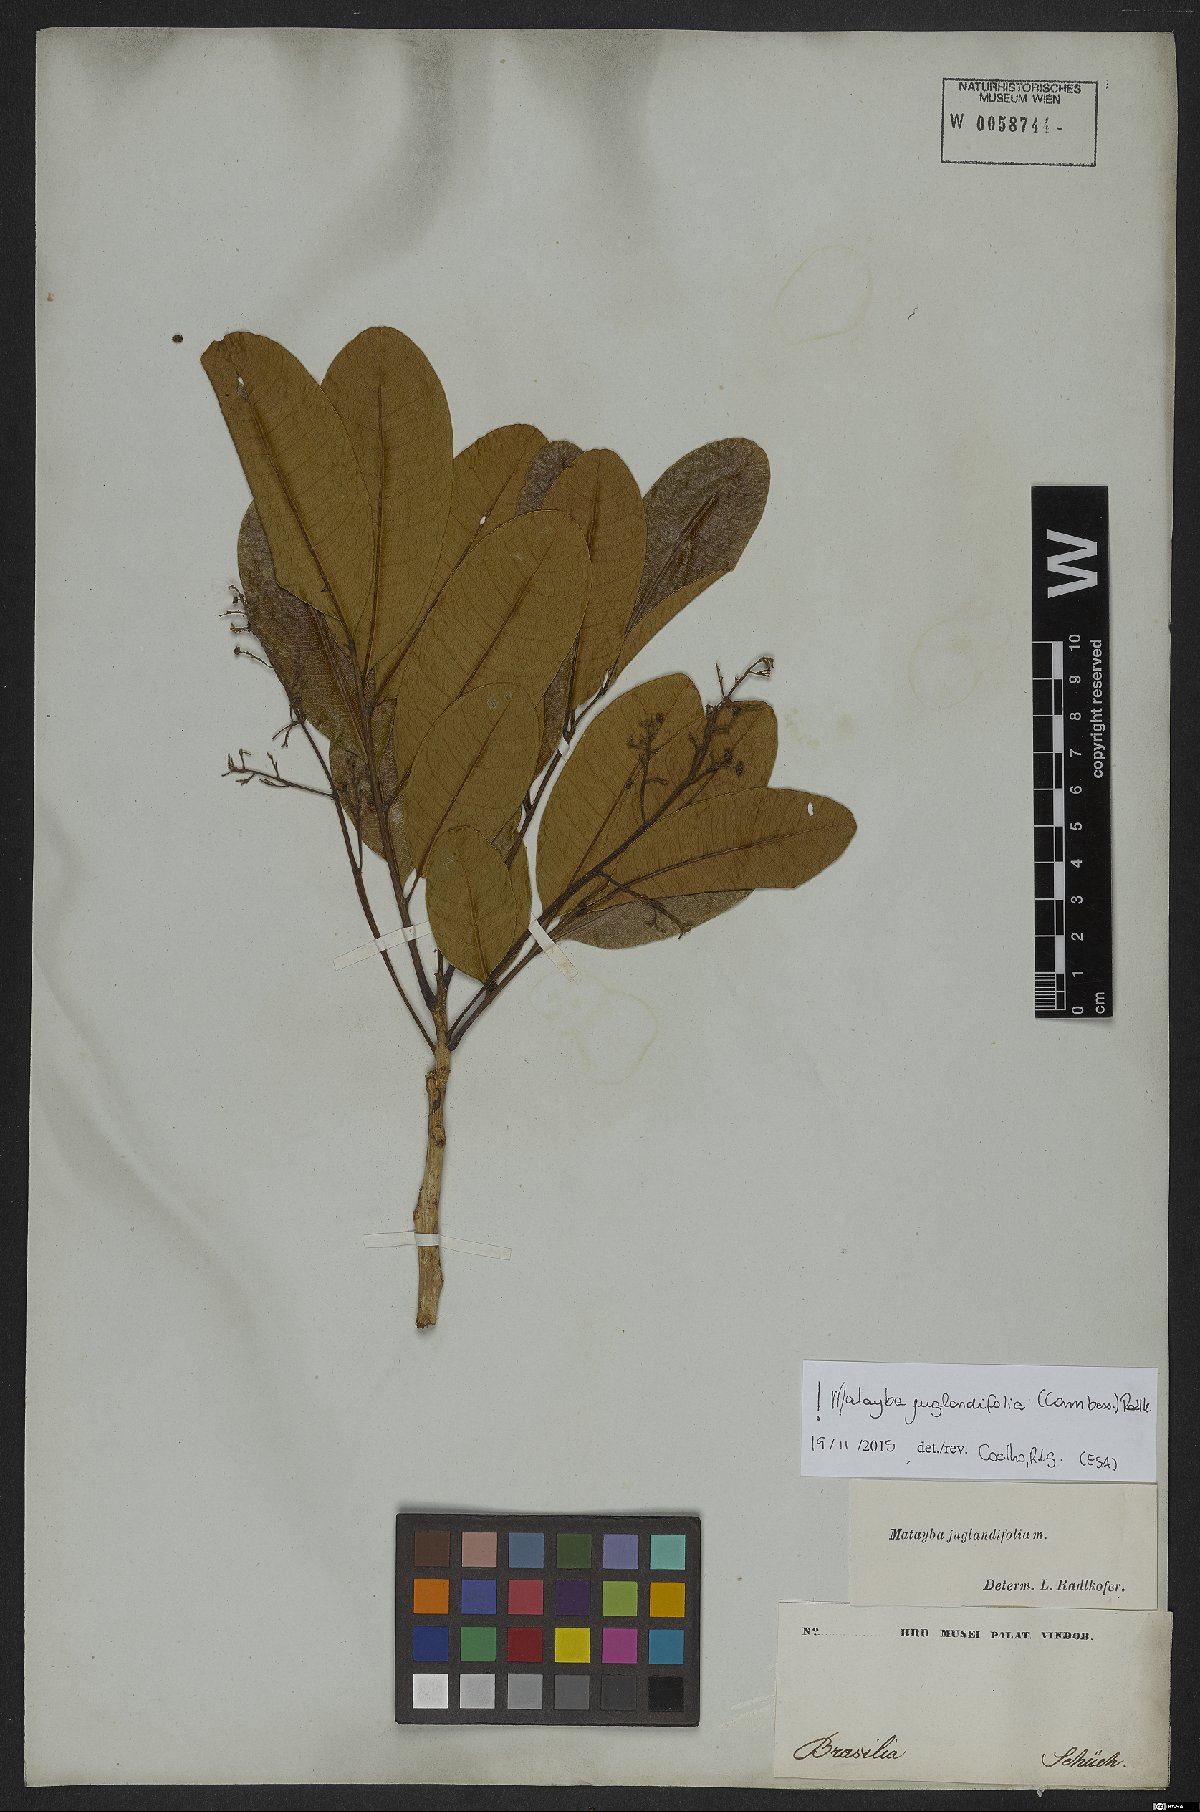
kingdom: Plantae
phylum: Tracheophyta
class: Magnoliopsida
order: Sapindales
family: Sapindaceae
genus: Matayba
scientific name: Matayba juglandifolia
